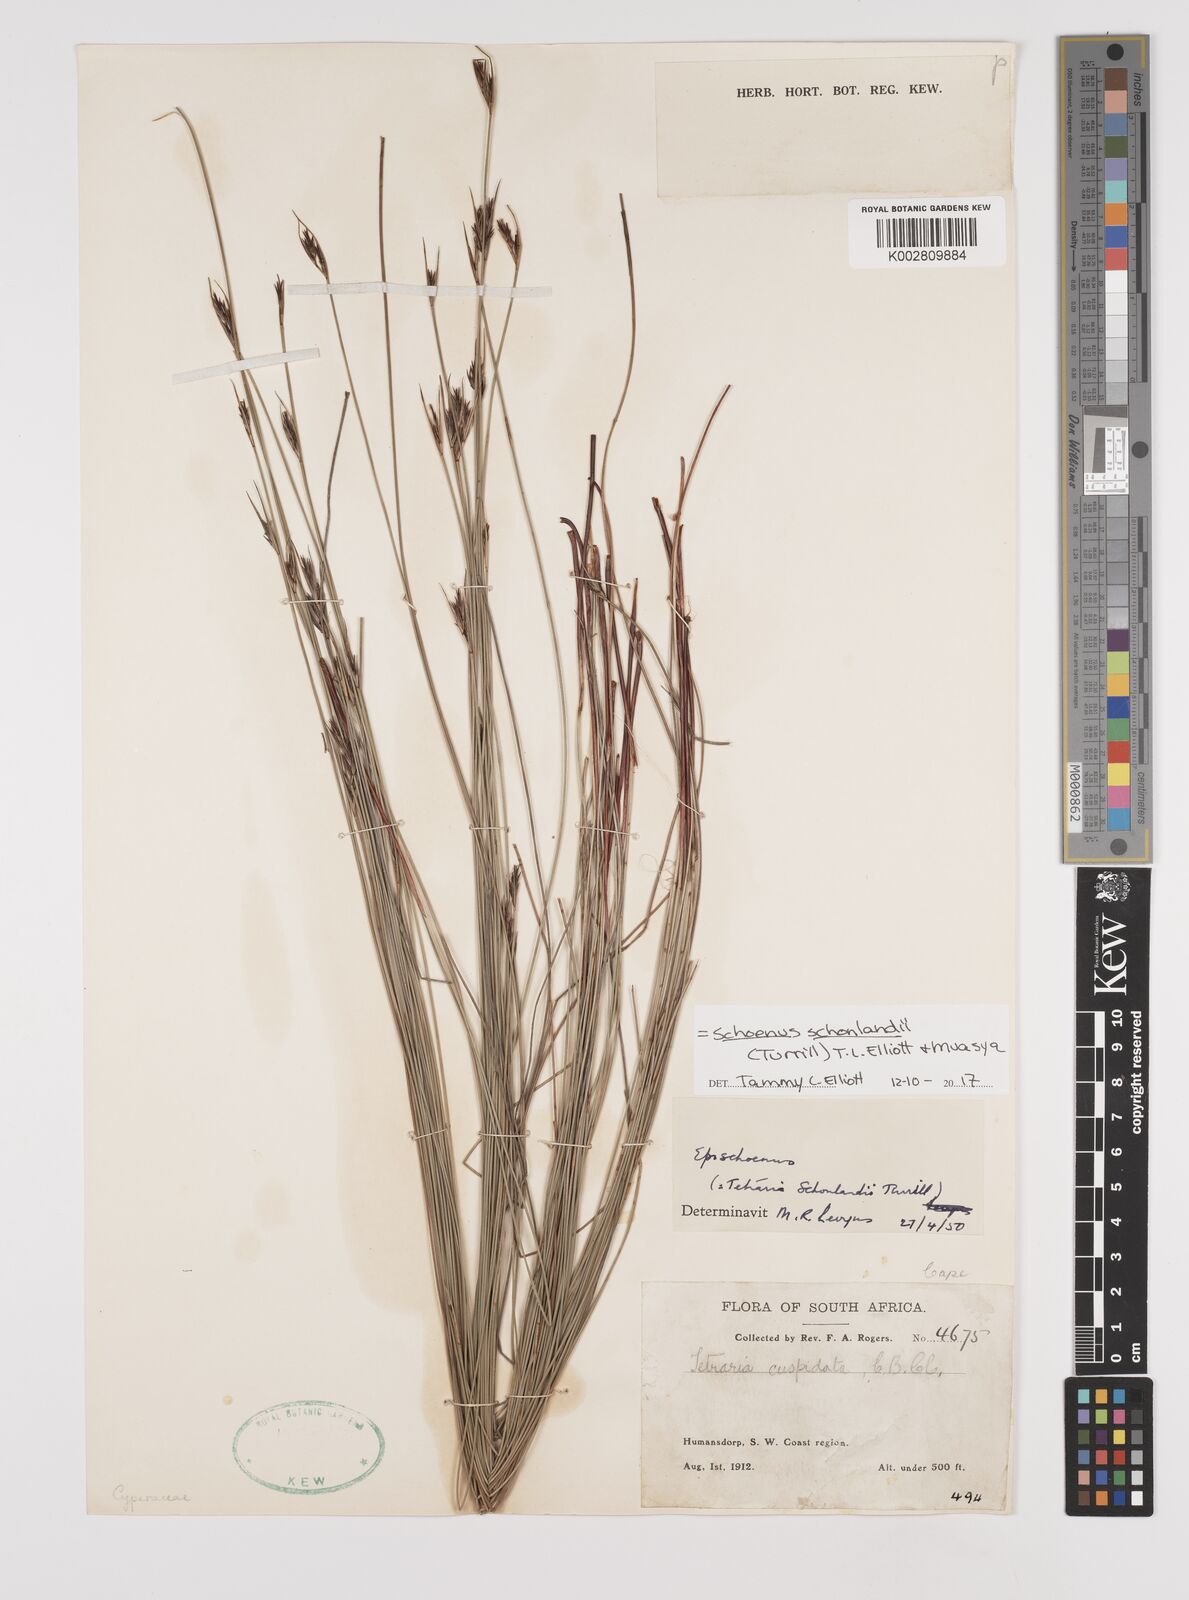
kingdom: Plantae
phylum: Tracheophyta
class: Liliopsida
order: Poales
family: Cyperaceae
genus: Schoenus
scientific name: Schoenus
